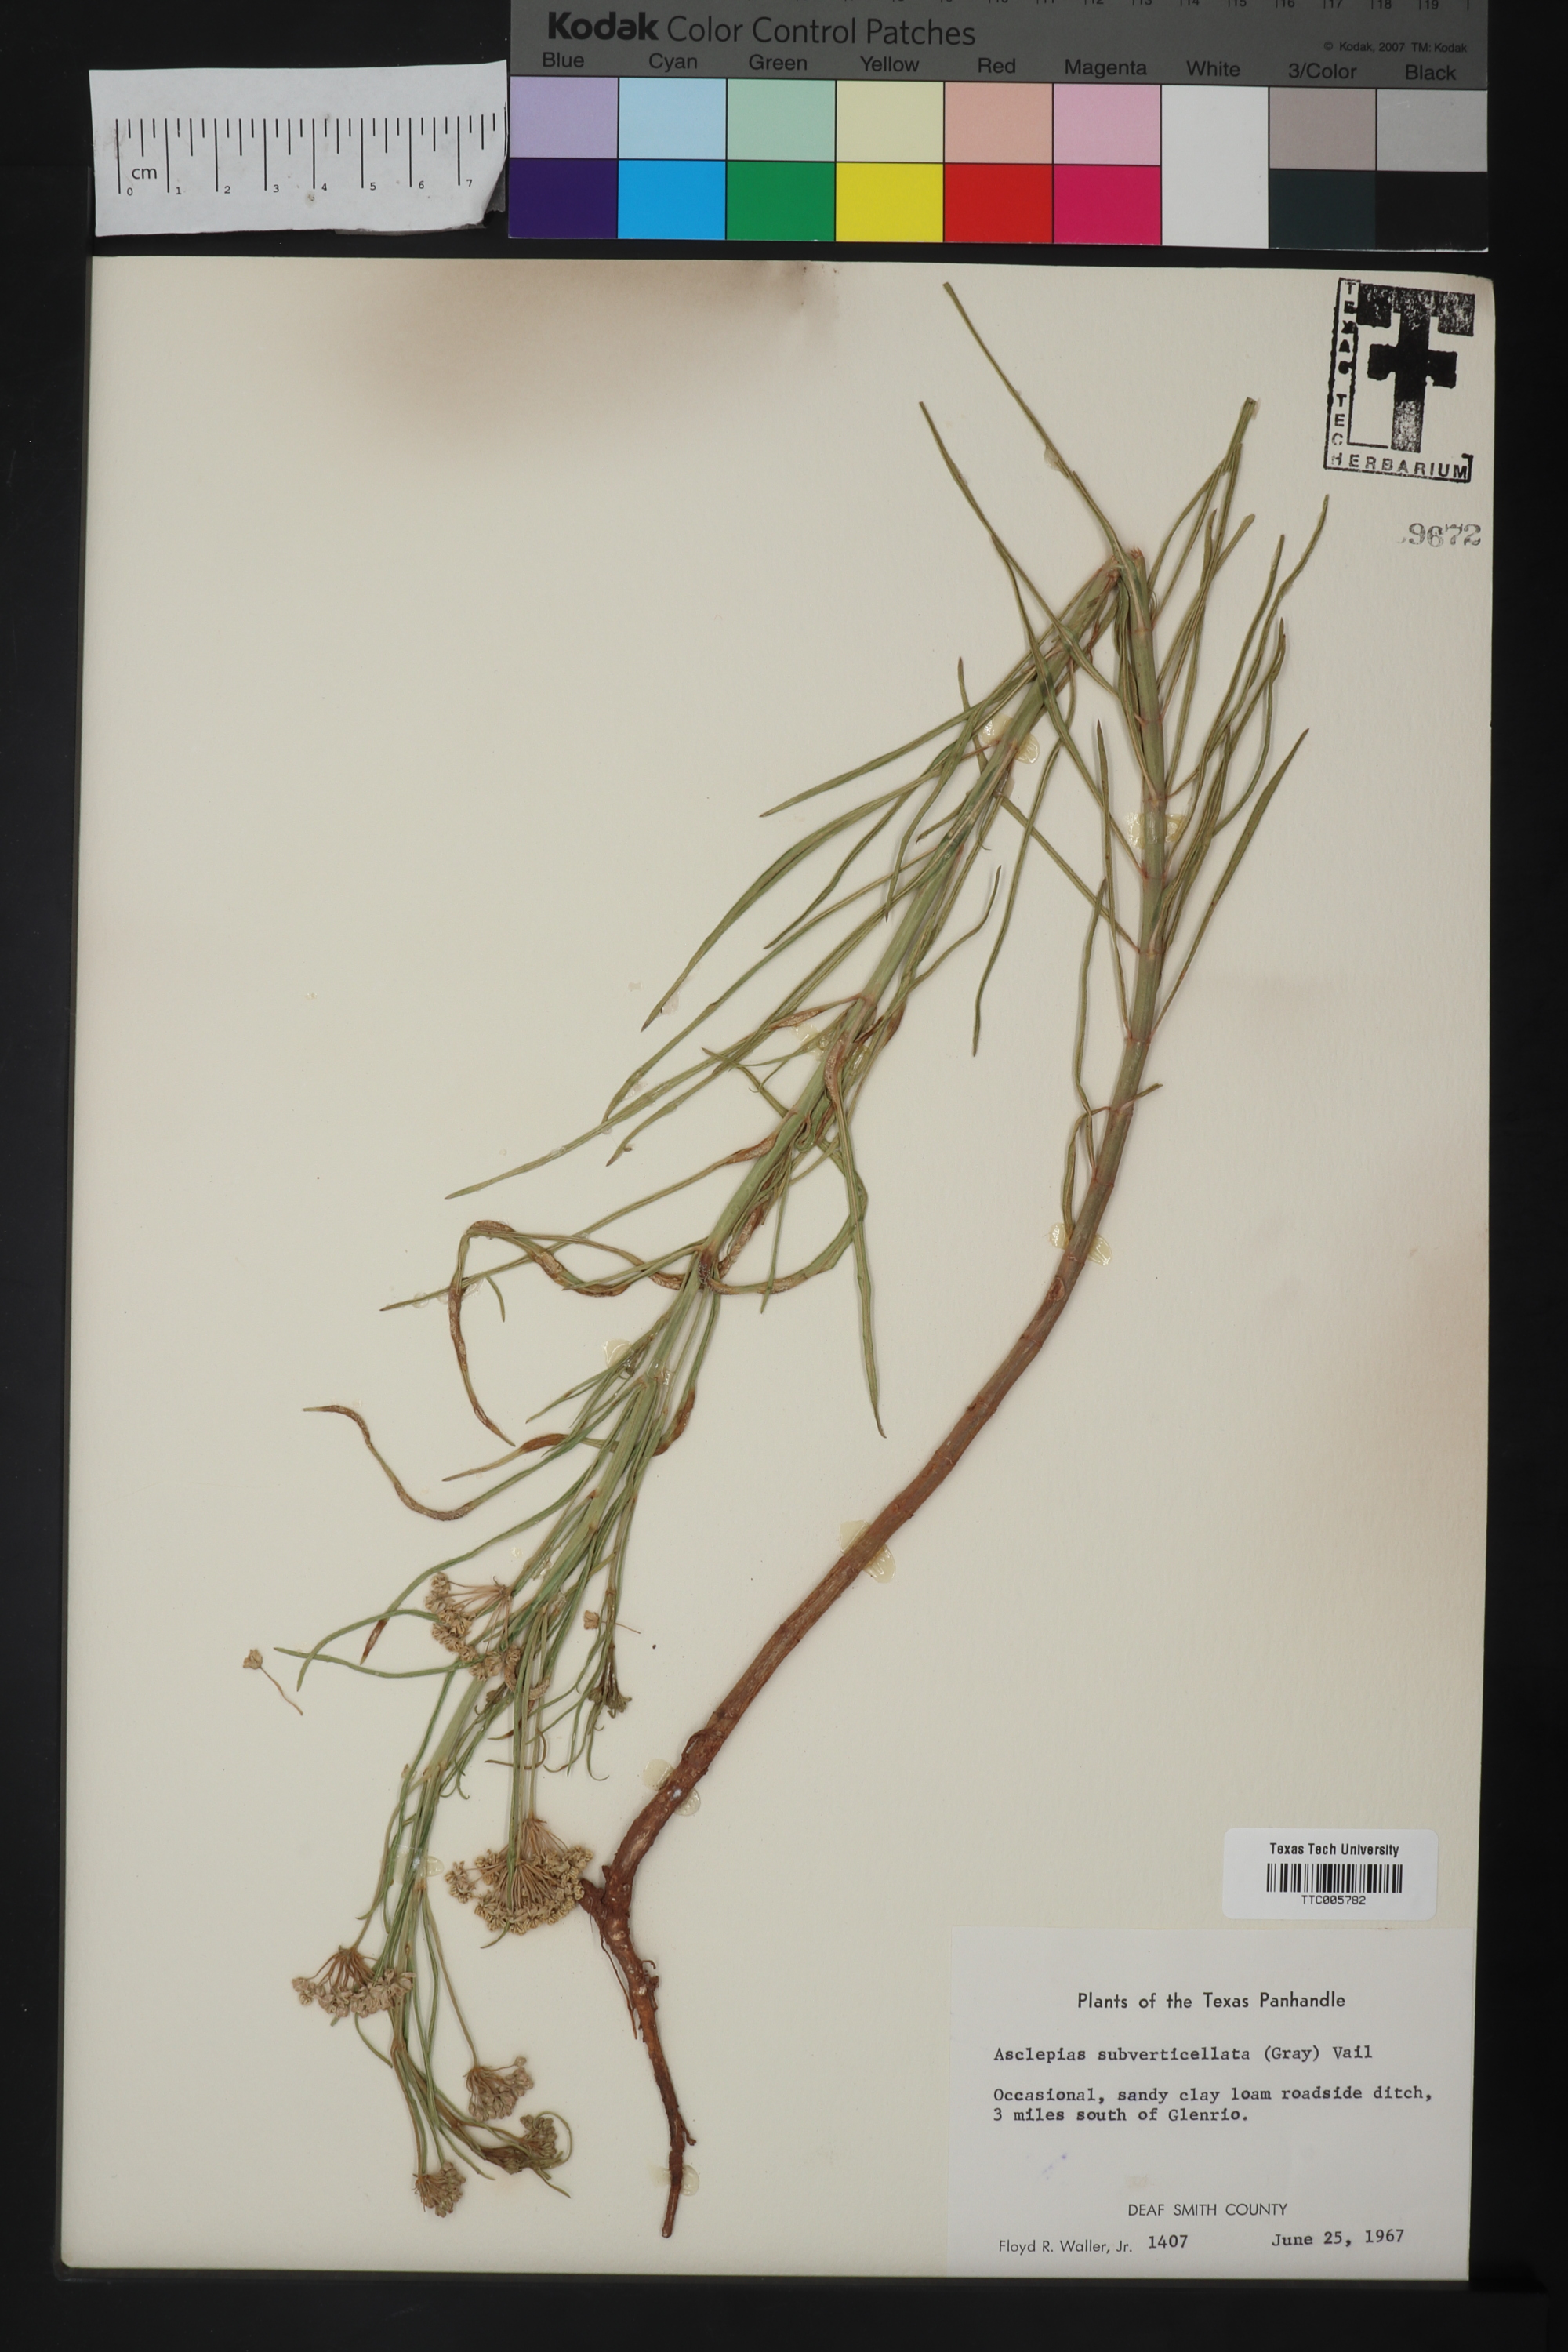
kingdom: Plantae
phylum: Tracheophyta
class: Magnoliopsida
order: Gentianales
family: Apocynaceae
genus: Asclepias
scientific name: Asclepias subverticillata
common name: Horsetail milkweed
